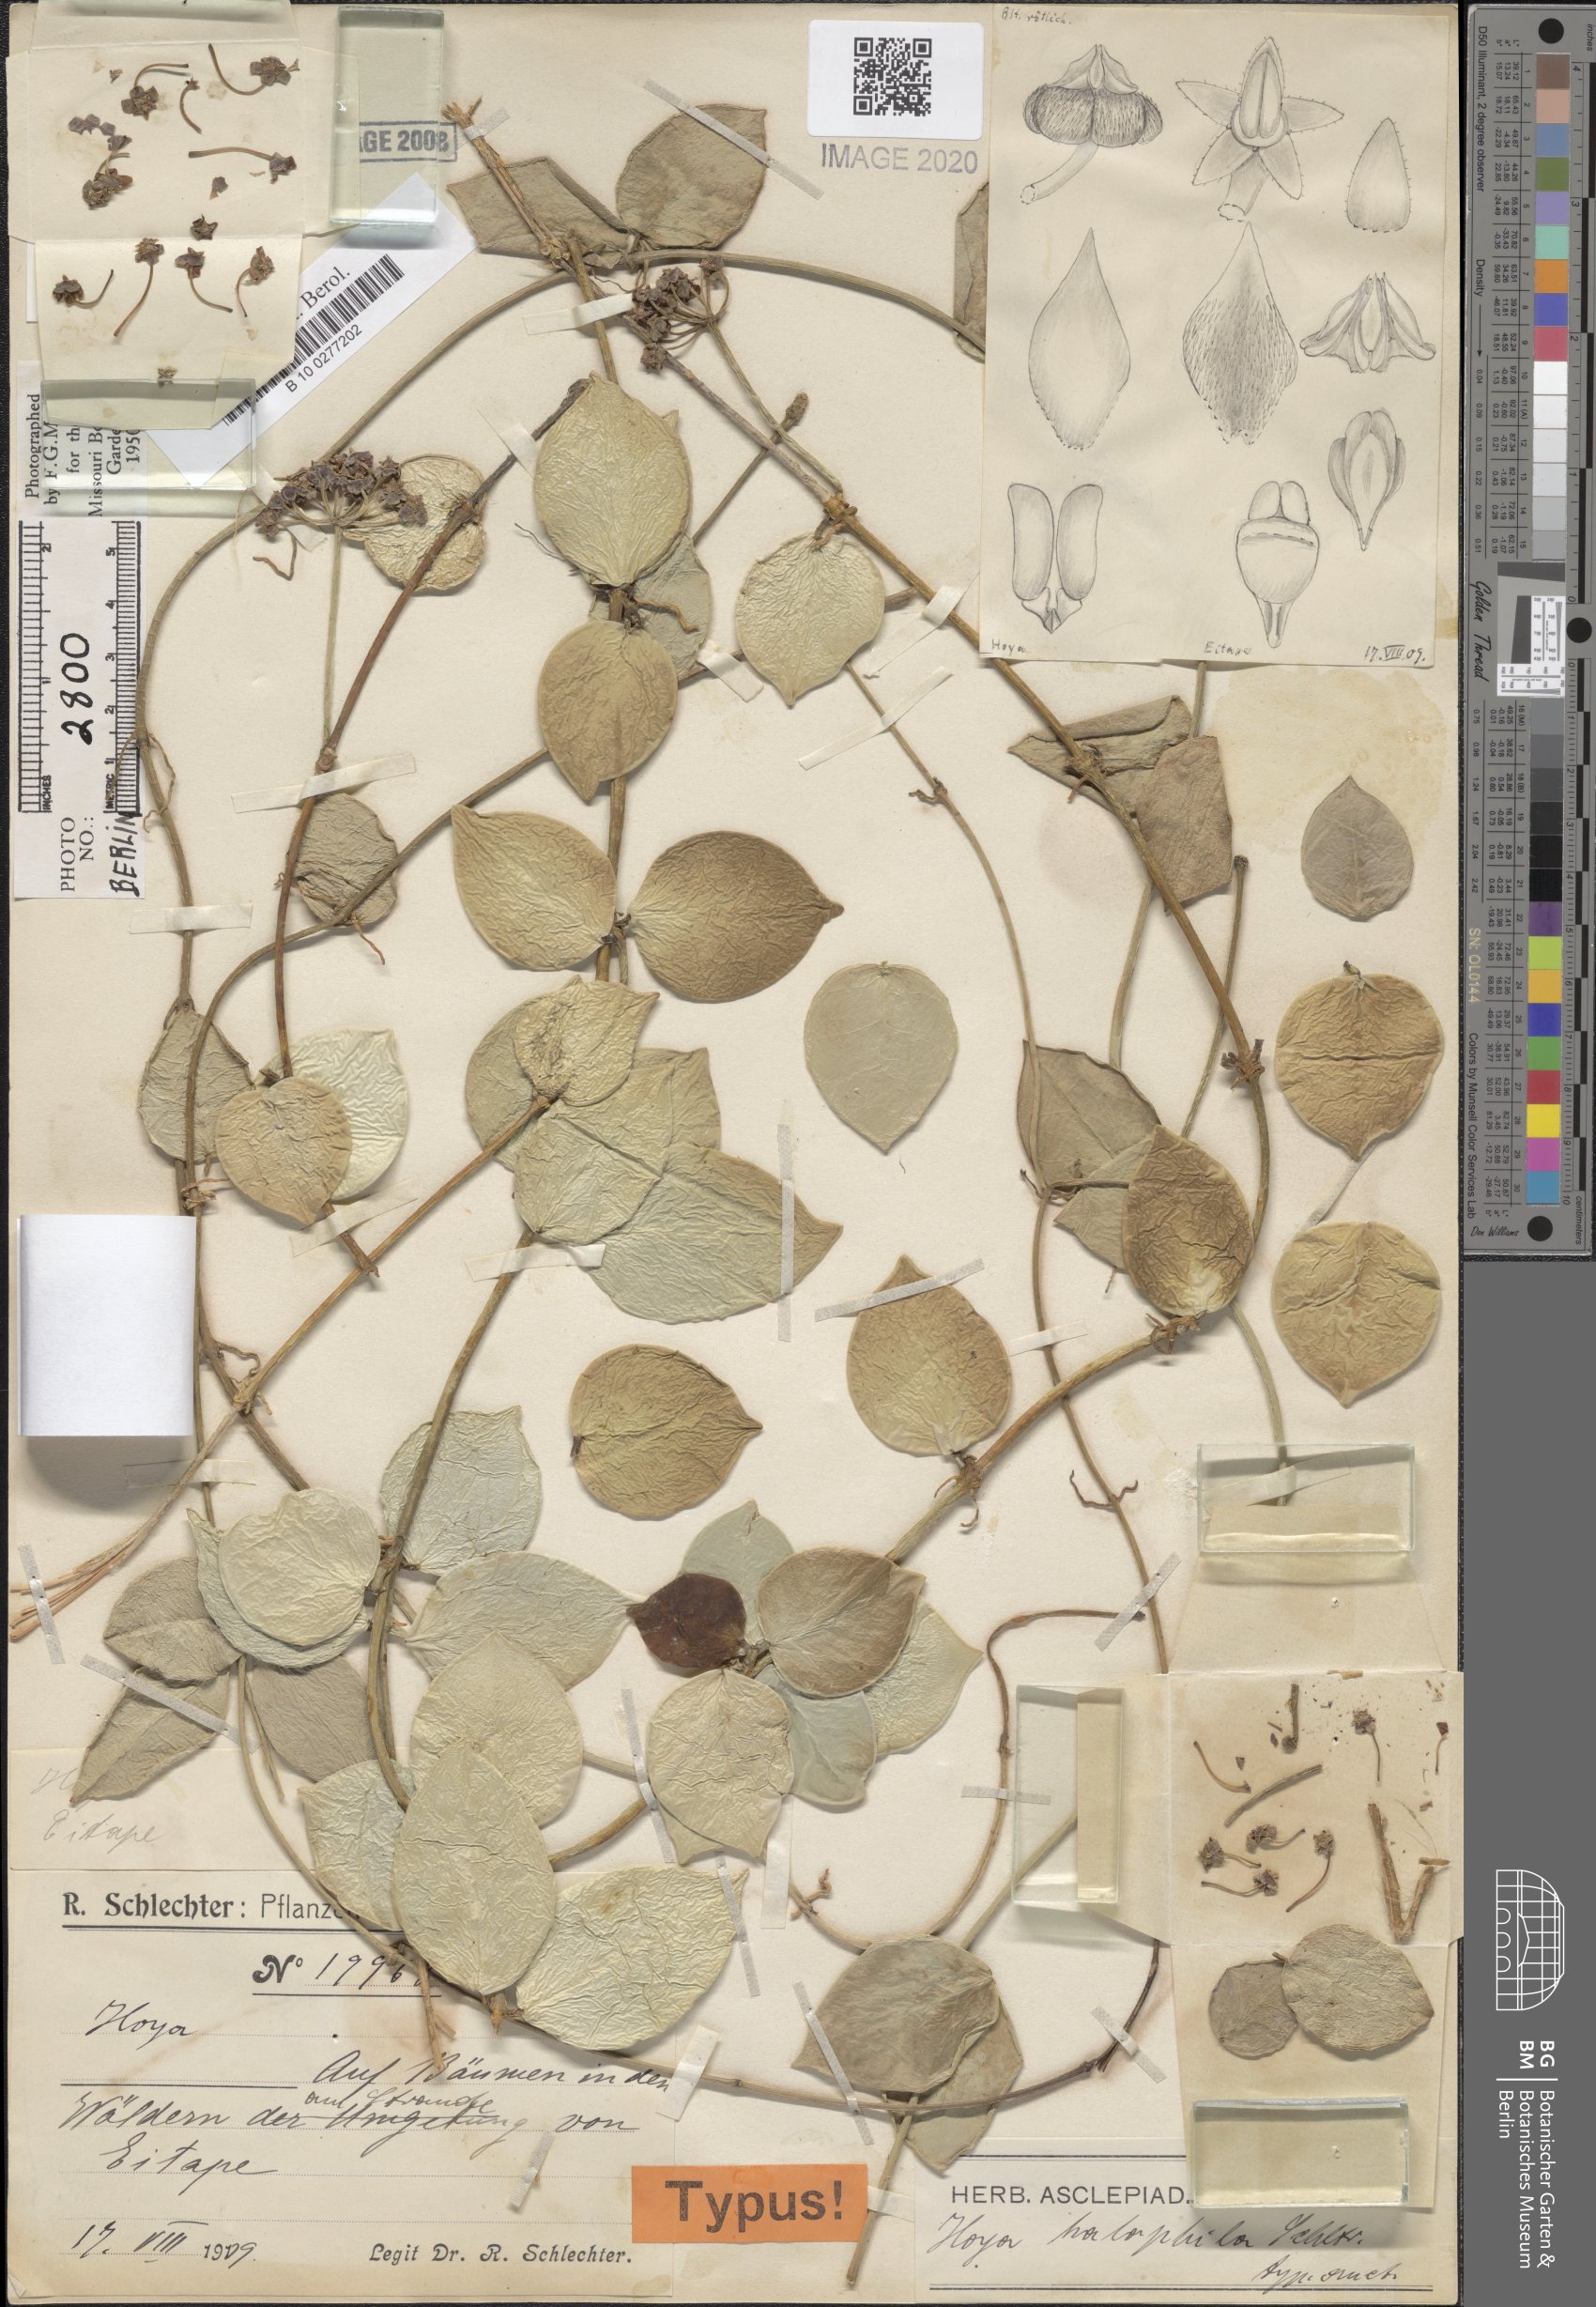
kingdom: Plantae
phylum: Tracheophyta
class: Magnoliopsida
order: Gentianales
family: Apocynaceae
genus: Hoya
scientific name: Hoya inconspicua
